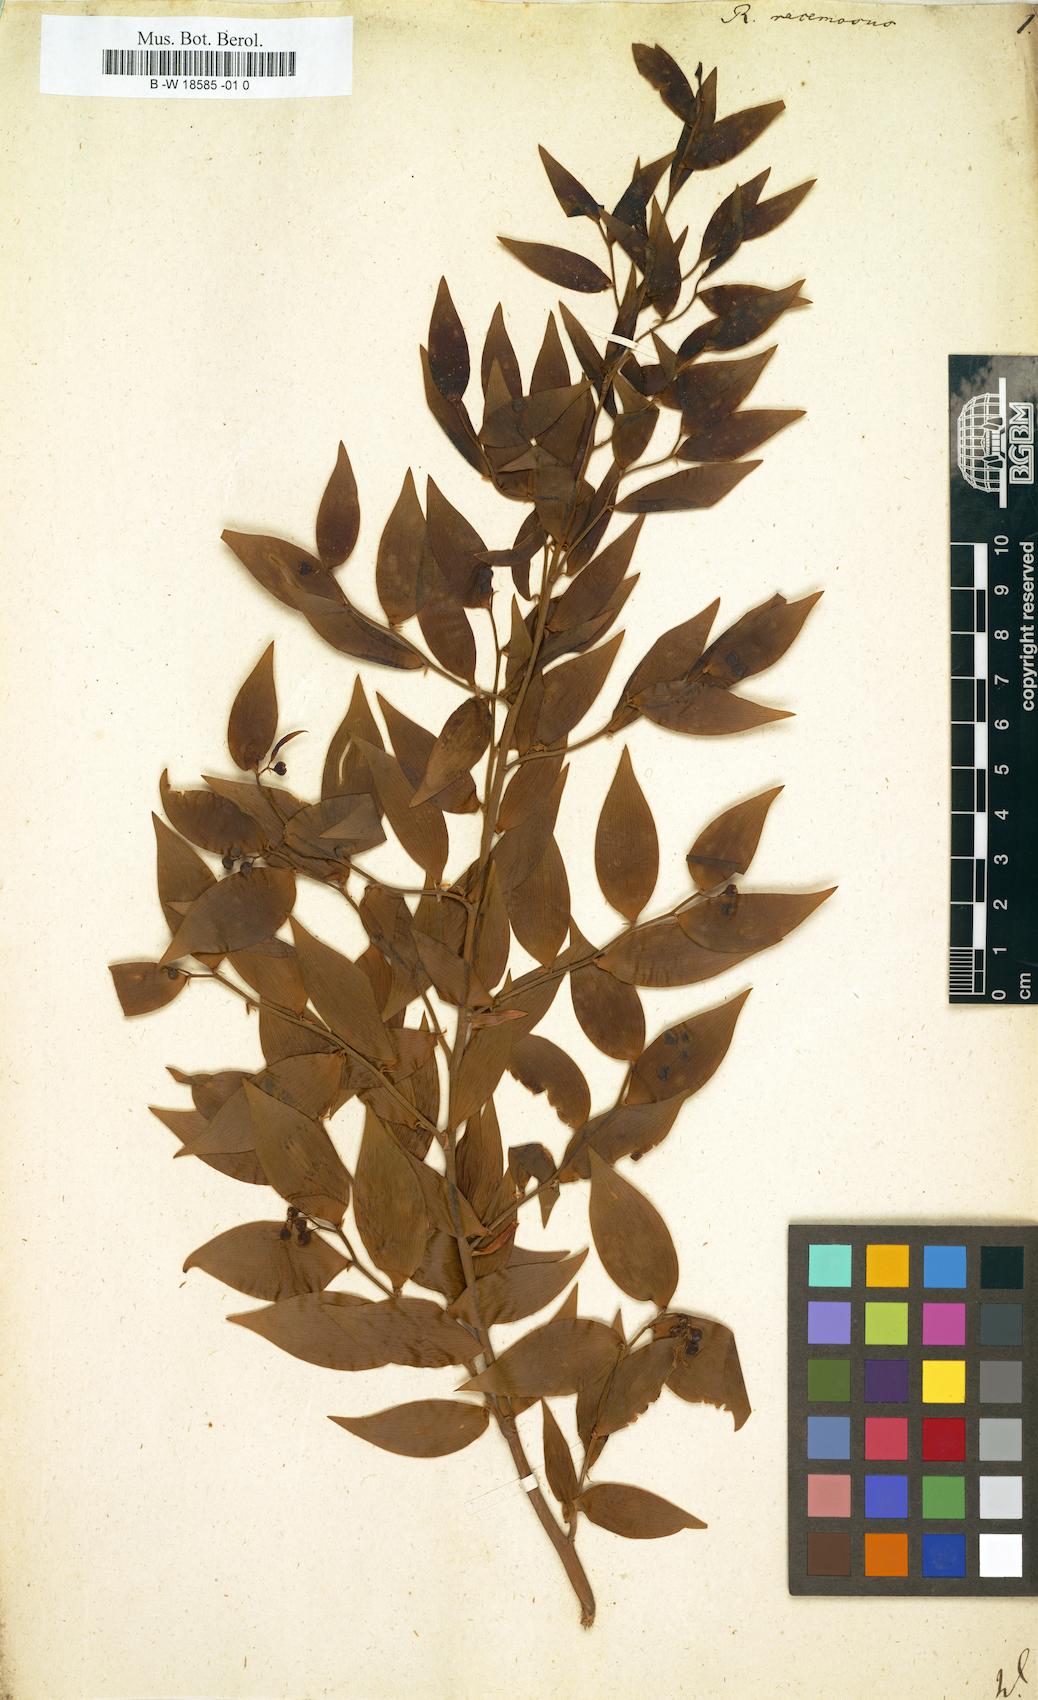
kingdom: Plantae
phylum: Tracheophyta
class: Liliopsida
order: Asparagales
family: Asparagaceae
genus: Danae
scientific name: Danae racemosa
